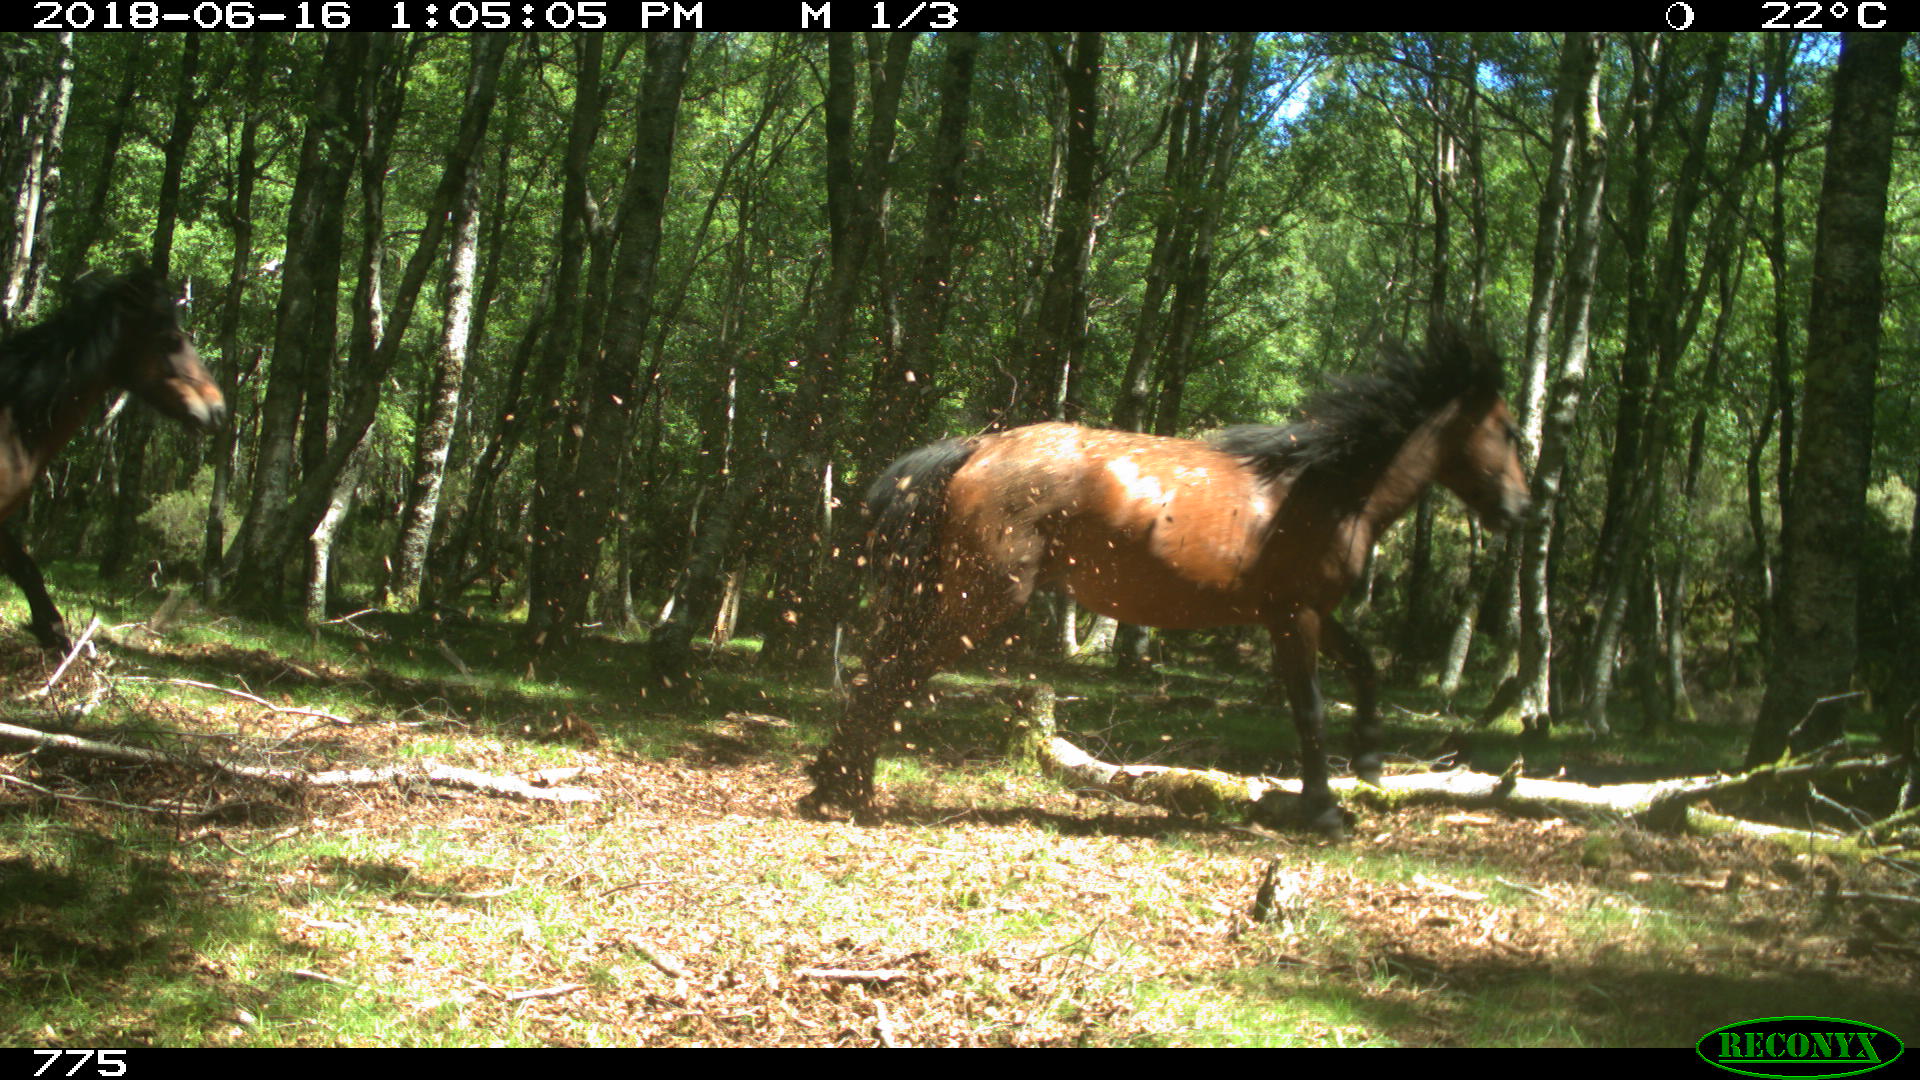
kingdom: Animalia
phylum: Chordata
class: Mammalia
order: Perissodactyla
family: Equidae
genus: Equus
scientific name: Equus caballus
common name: Horse
